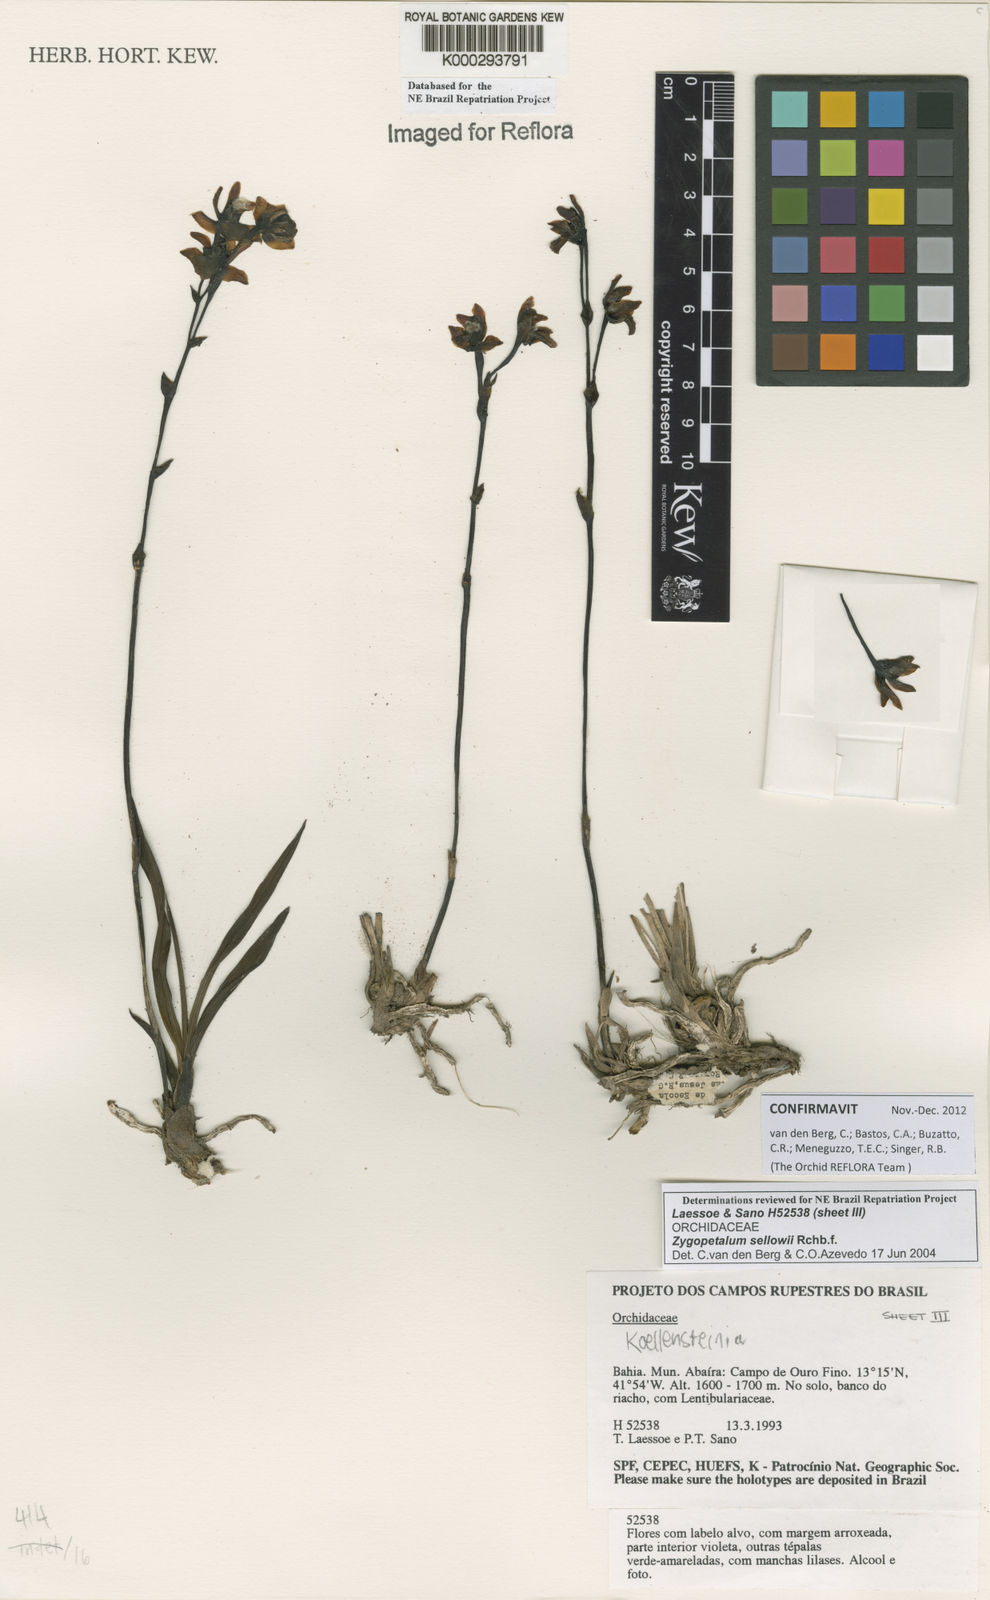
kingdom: Plantae
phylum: Tracheophyta
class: Liliopsida
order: Asparagales
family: Orchidaceae
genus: Zygopetalum
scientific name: Zygopetalum sellowii
